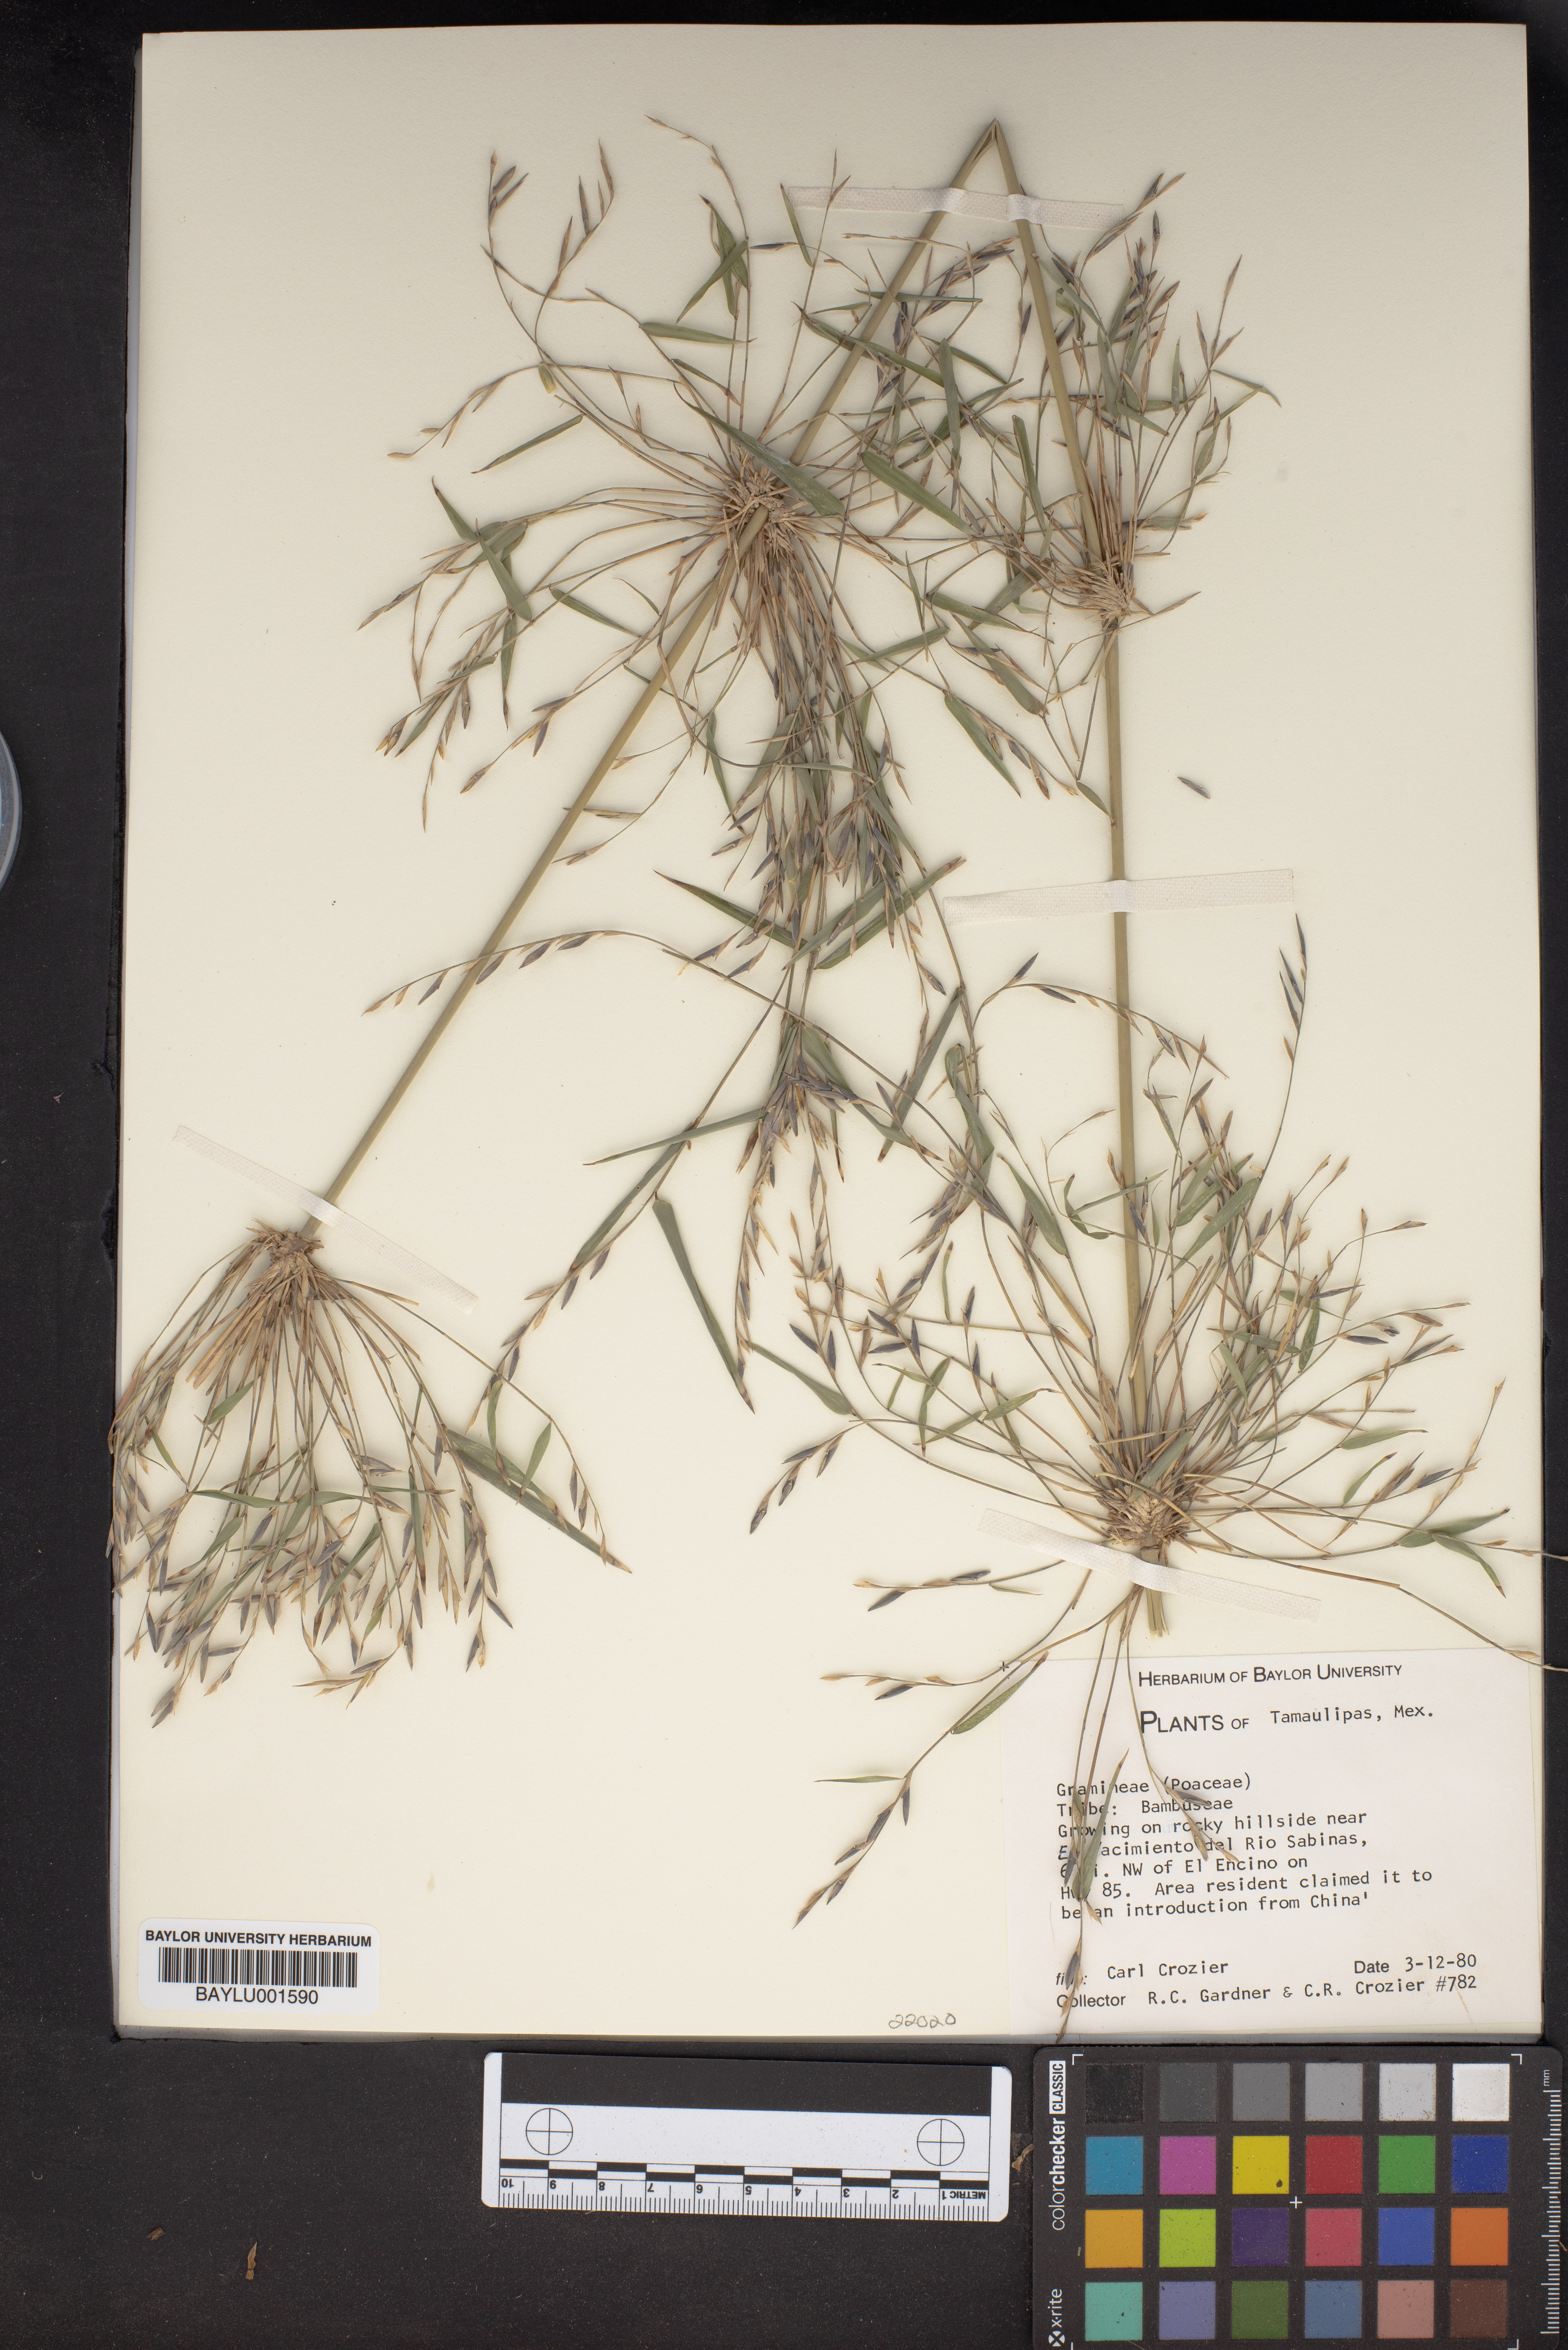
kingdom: Plantae
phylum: Tracheophyta
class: Liliopsida
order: Poales
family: Poaceae
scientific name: Poaceae
